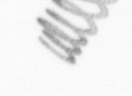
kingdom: Chromista
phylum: Ochrophyta
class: Bacillariophyceae
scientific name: Bacillariophyceae
